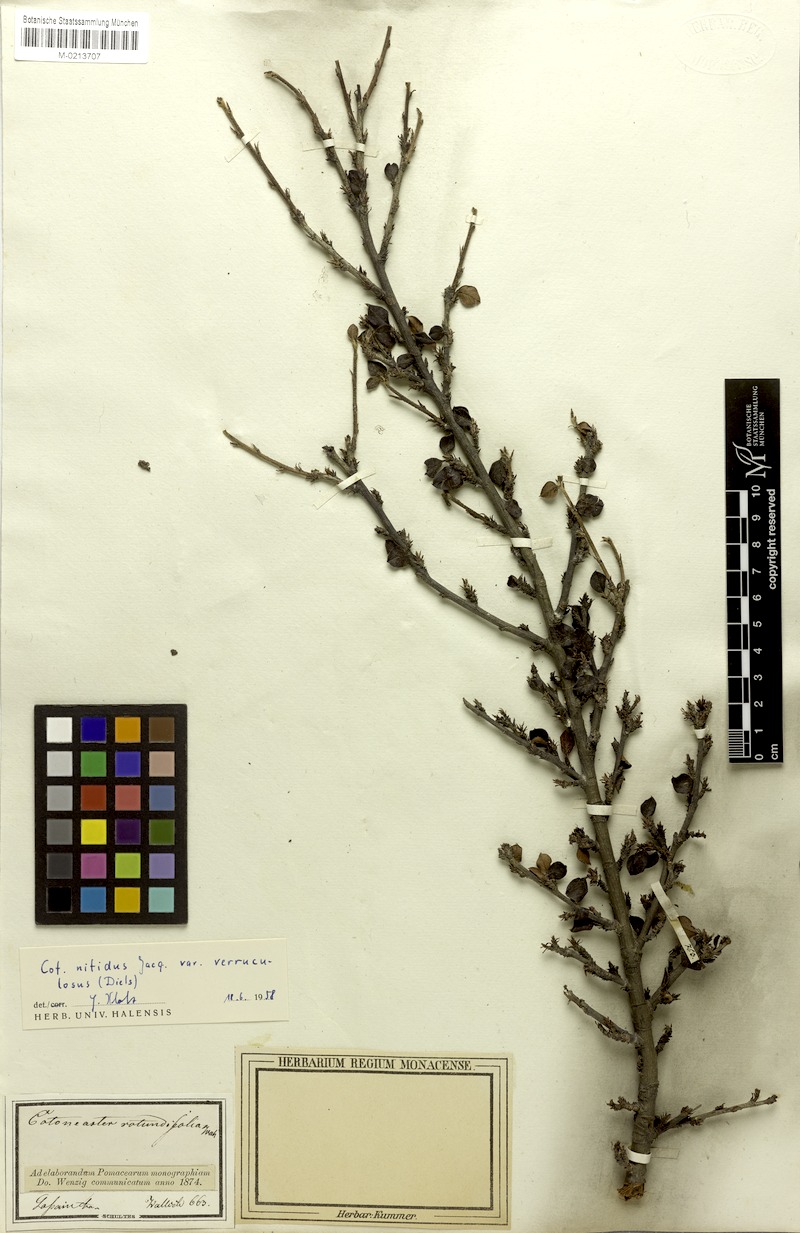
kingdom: Plantae
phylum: Tracheophyta
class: Magnoliopsida
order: Rosales
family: Rosaceae
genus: Cotoneaster
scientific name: Cotoneaster rotundifolius
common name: Round-leaved cotoneaster
